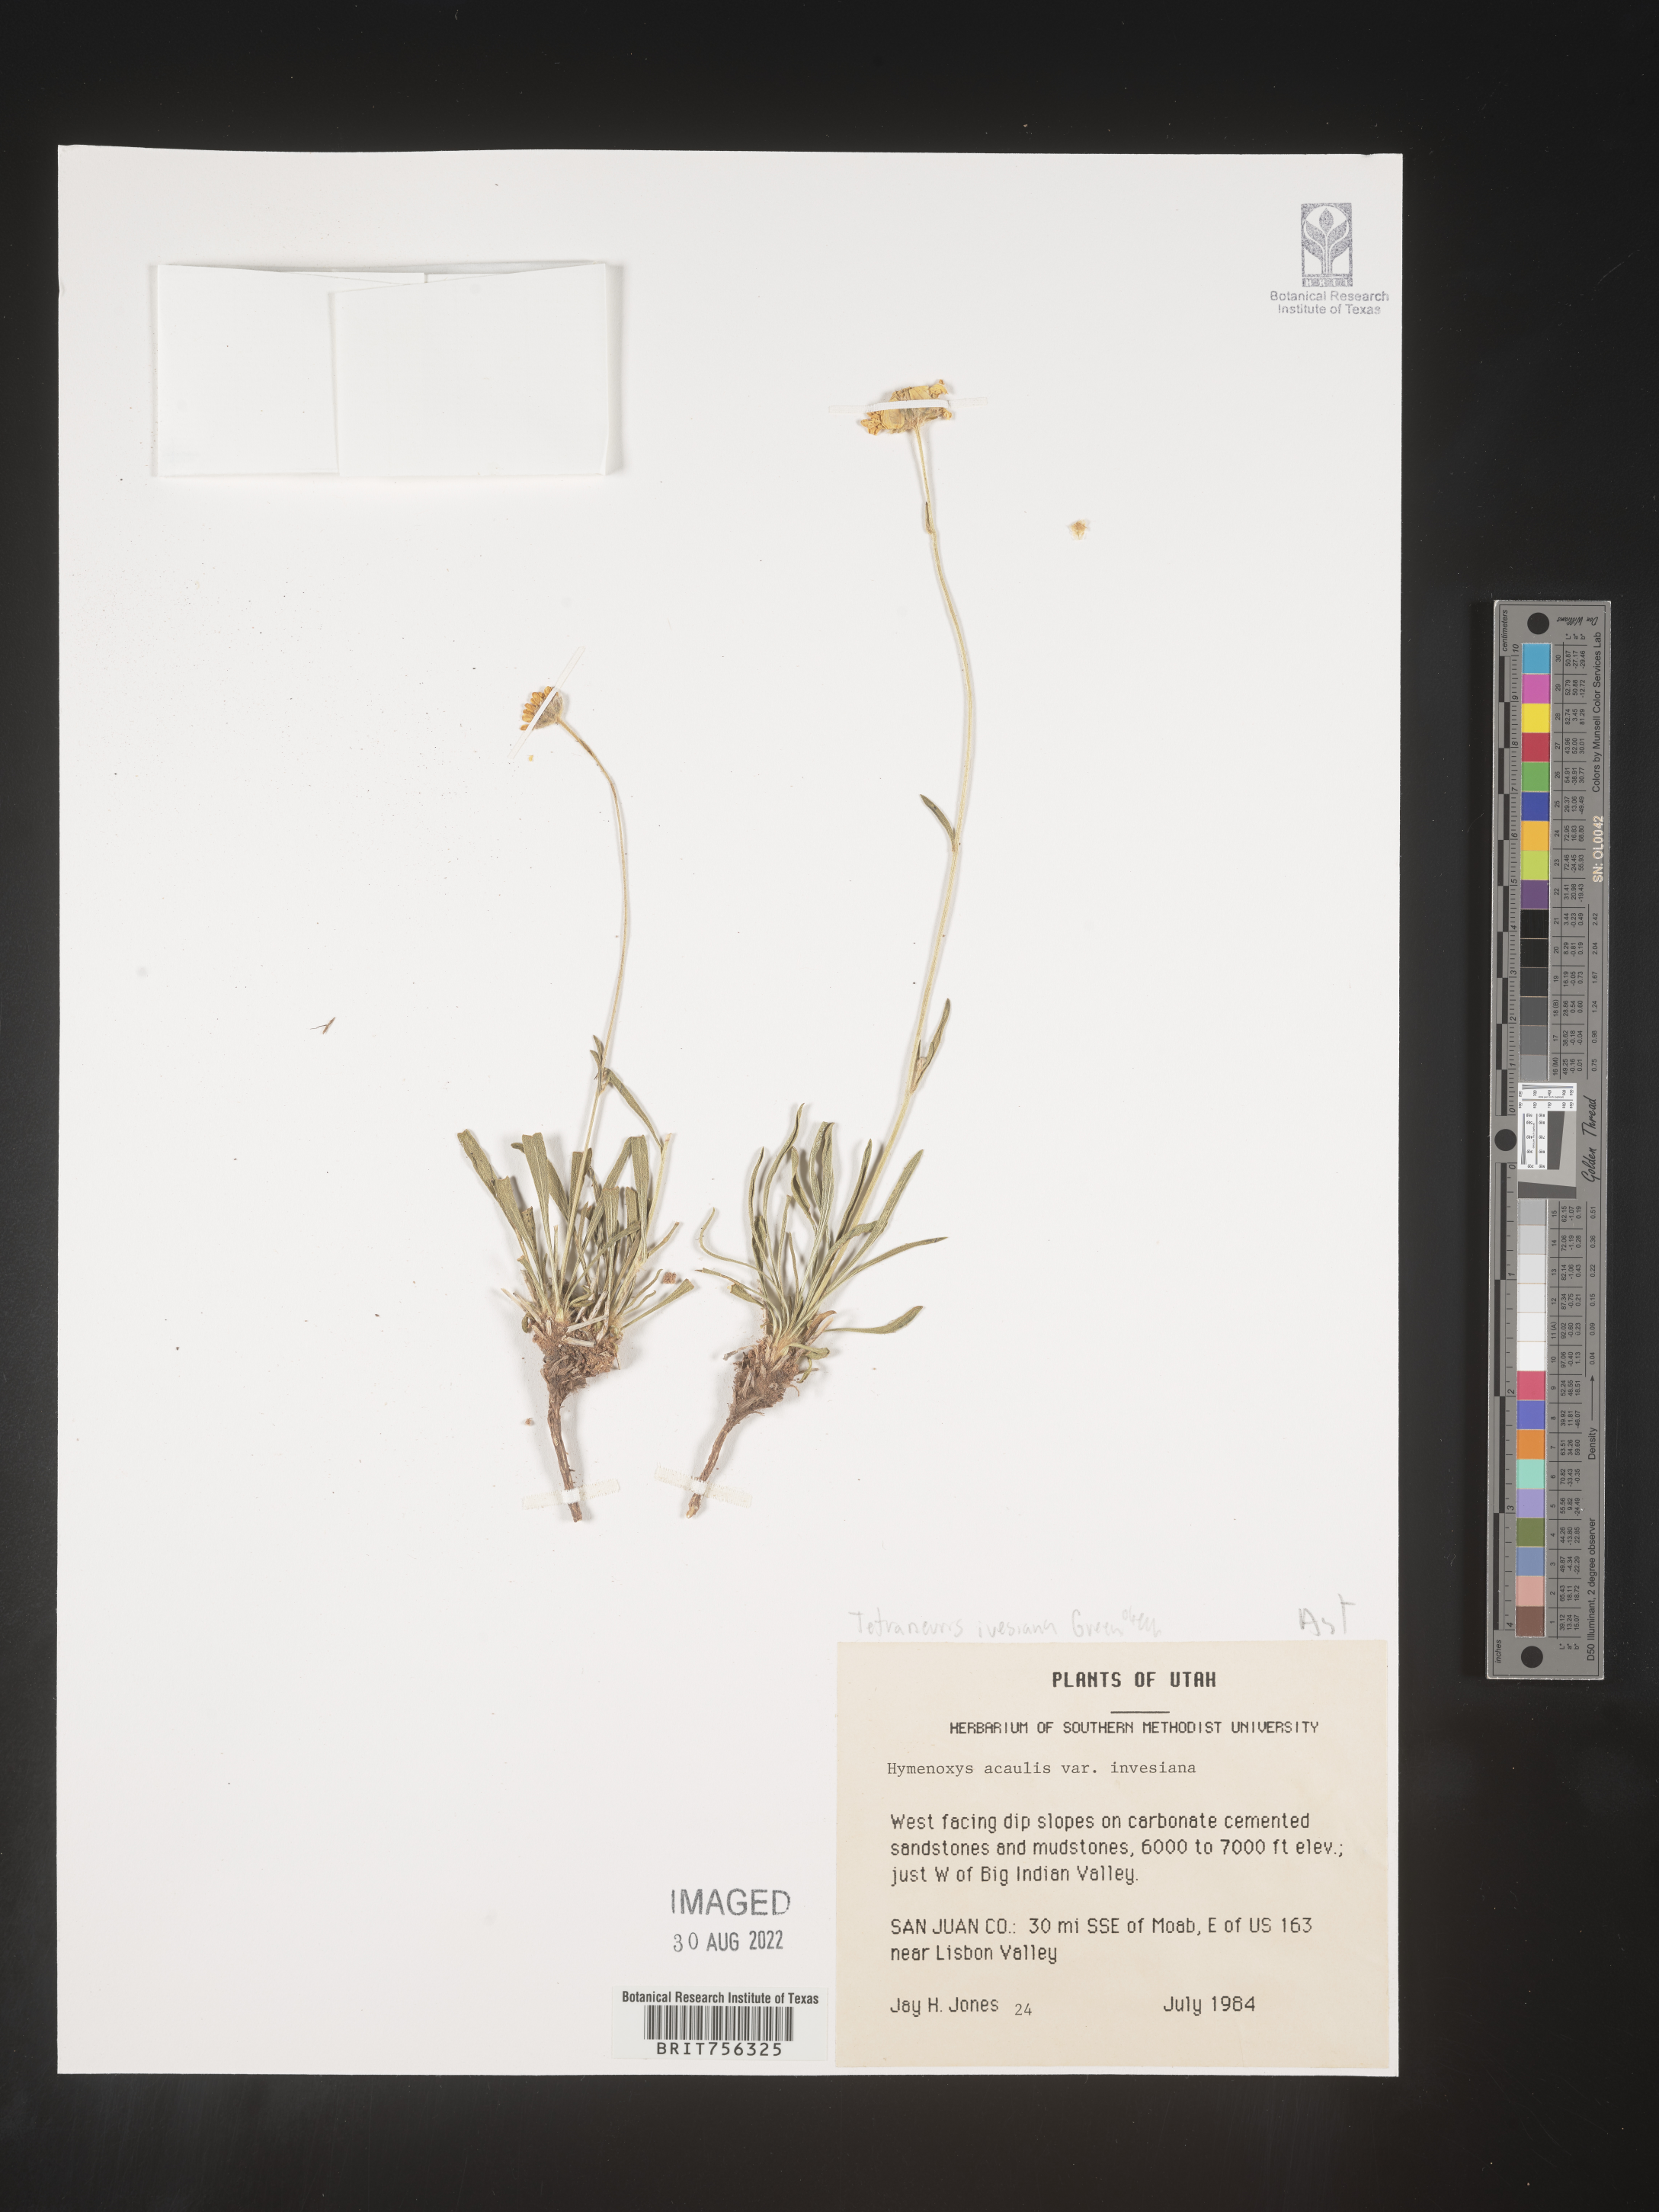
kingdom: Plantae
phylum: Tracheophyta
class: Magnoliopsida
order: Asterales
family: Asteraceae
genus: Tetraneuris
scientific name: Tetraneuris ivesiana
